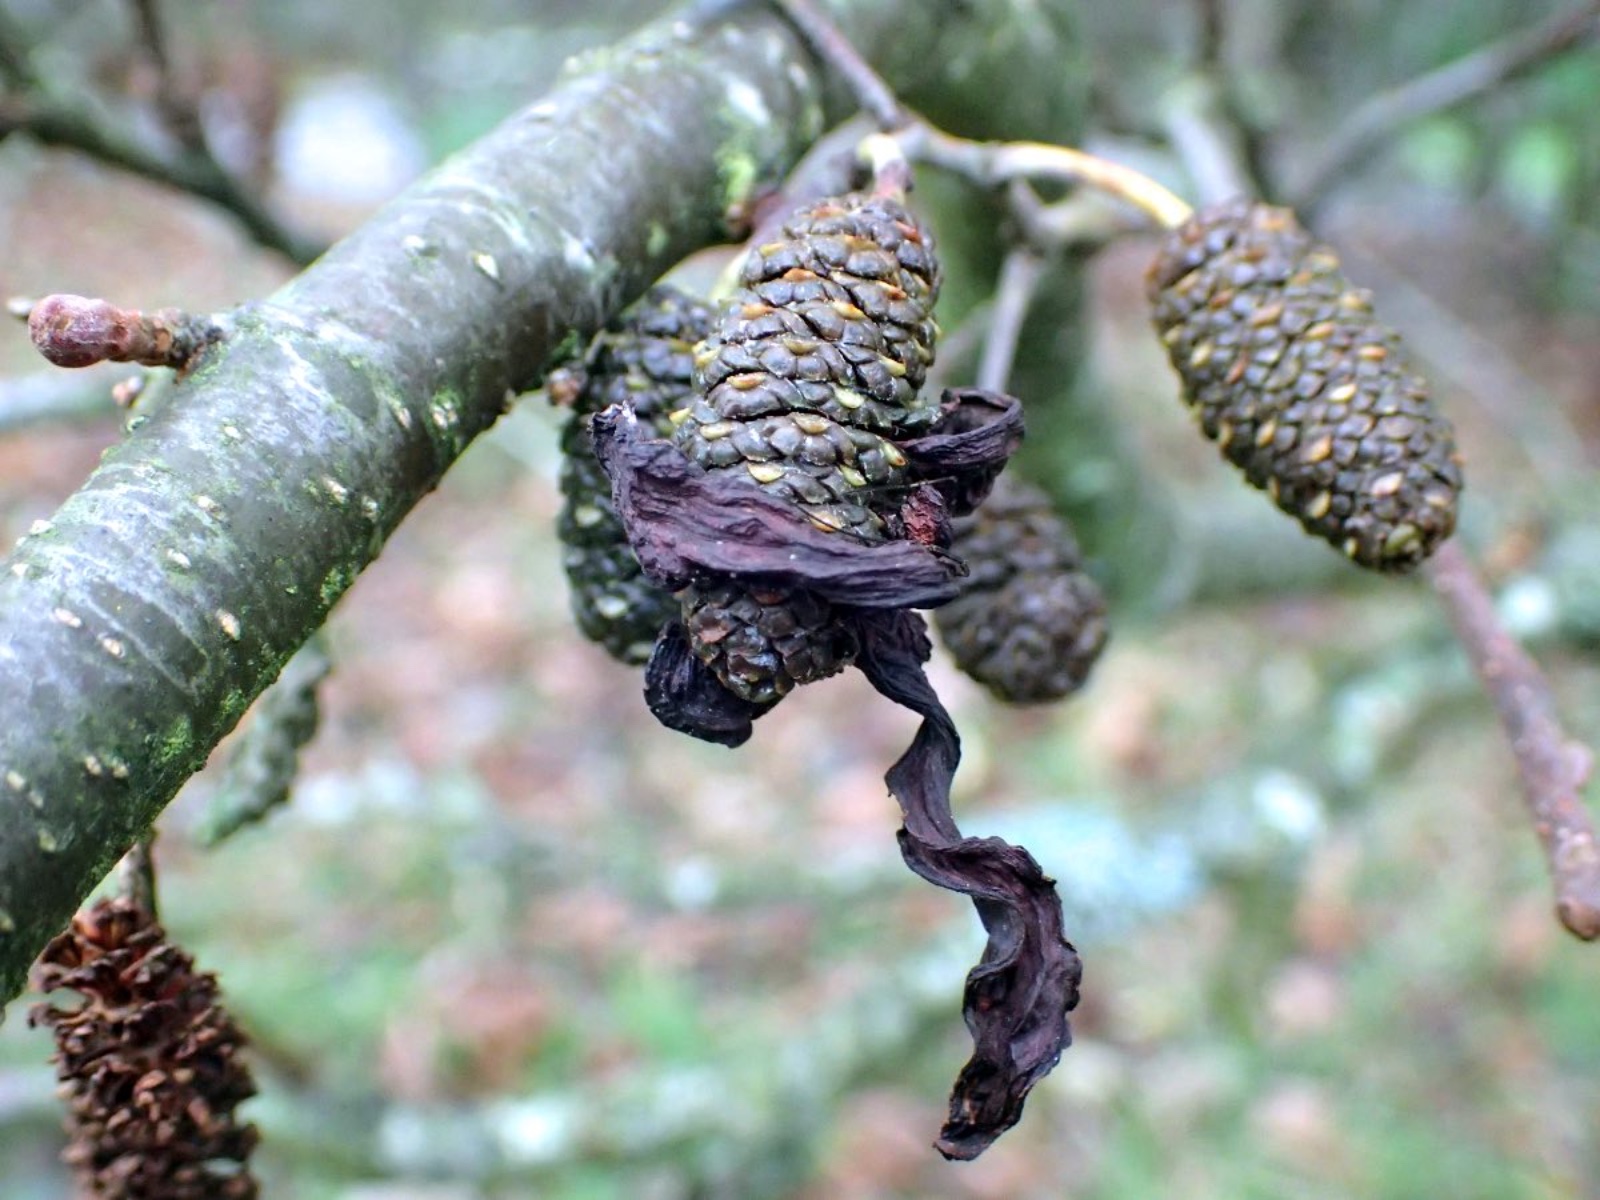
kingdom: Fungi
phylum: Ascomycota
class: Taphrinomycetes
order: Taphrinales
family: Taphrinaceae
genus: Taphrina
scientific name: Taphrina alni
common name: Alder tongue
